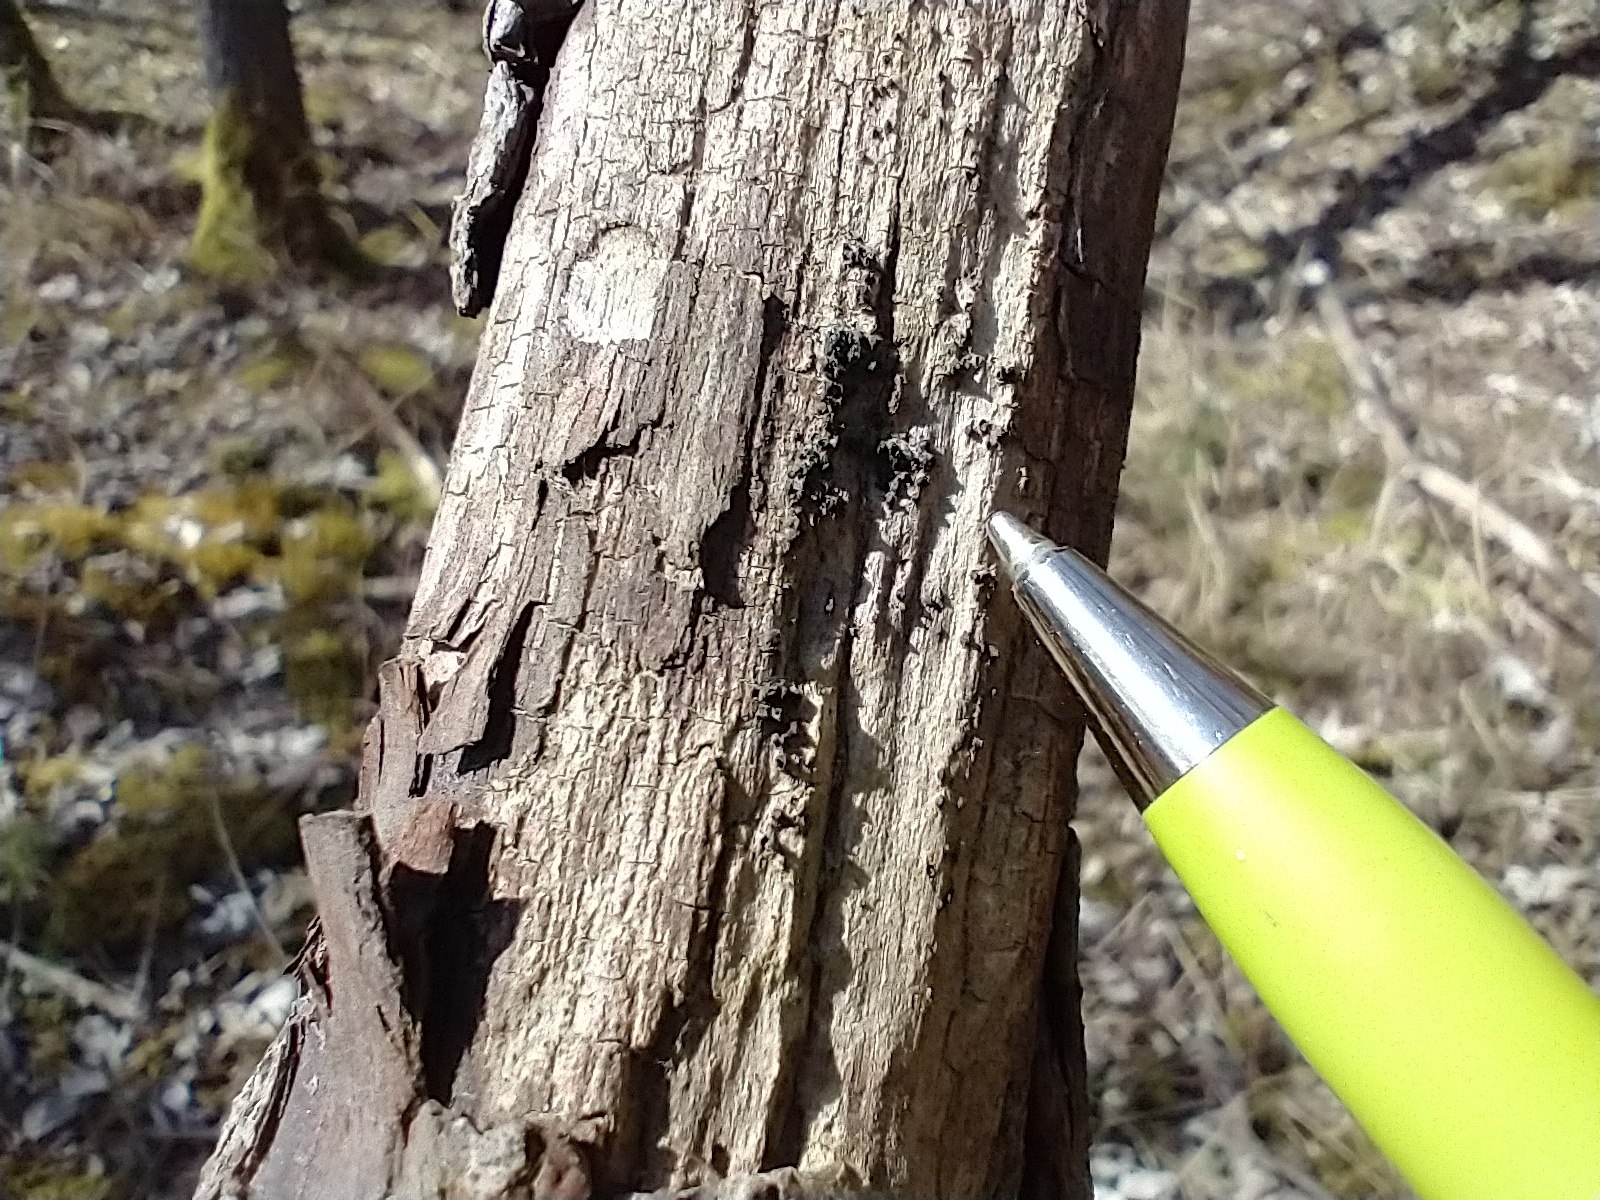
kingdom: Fungi
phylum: Ascomycota
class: Eurotiomycetes
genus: Glyphium
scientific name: Glyphium elatum
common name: kuløkse
